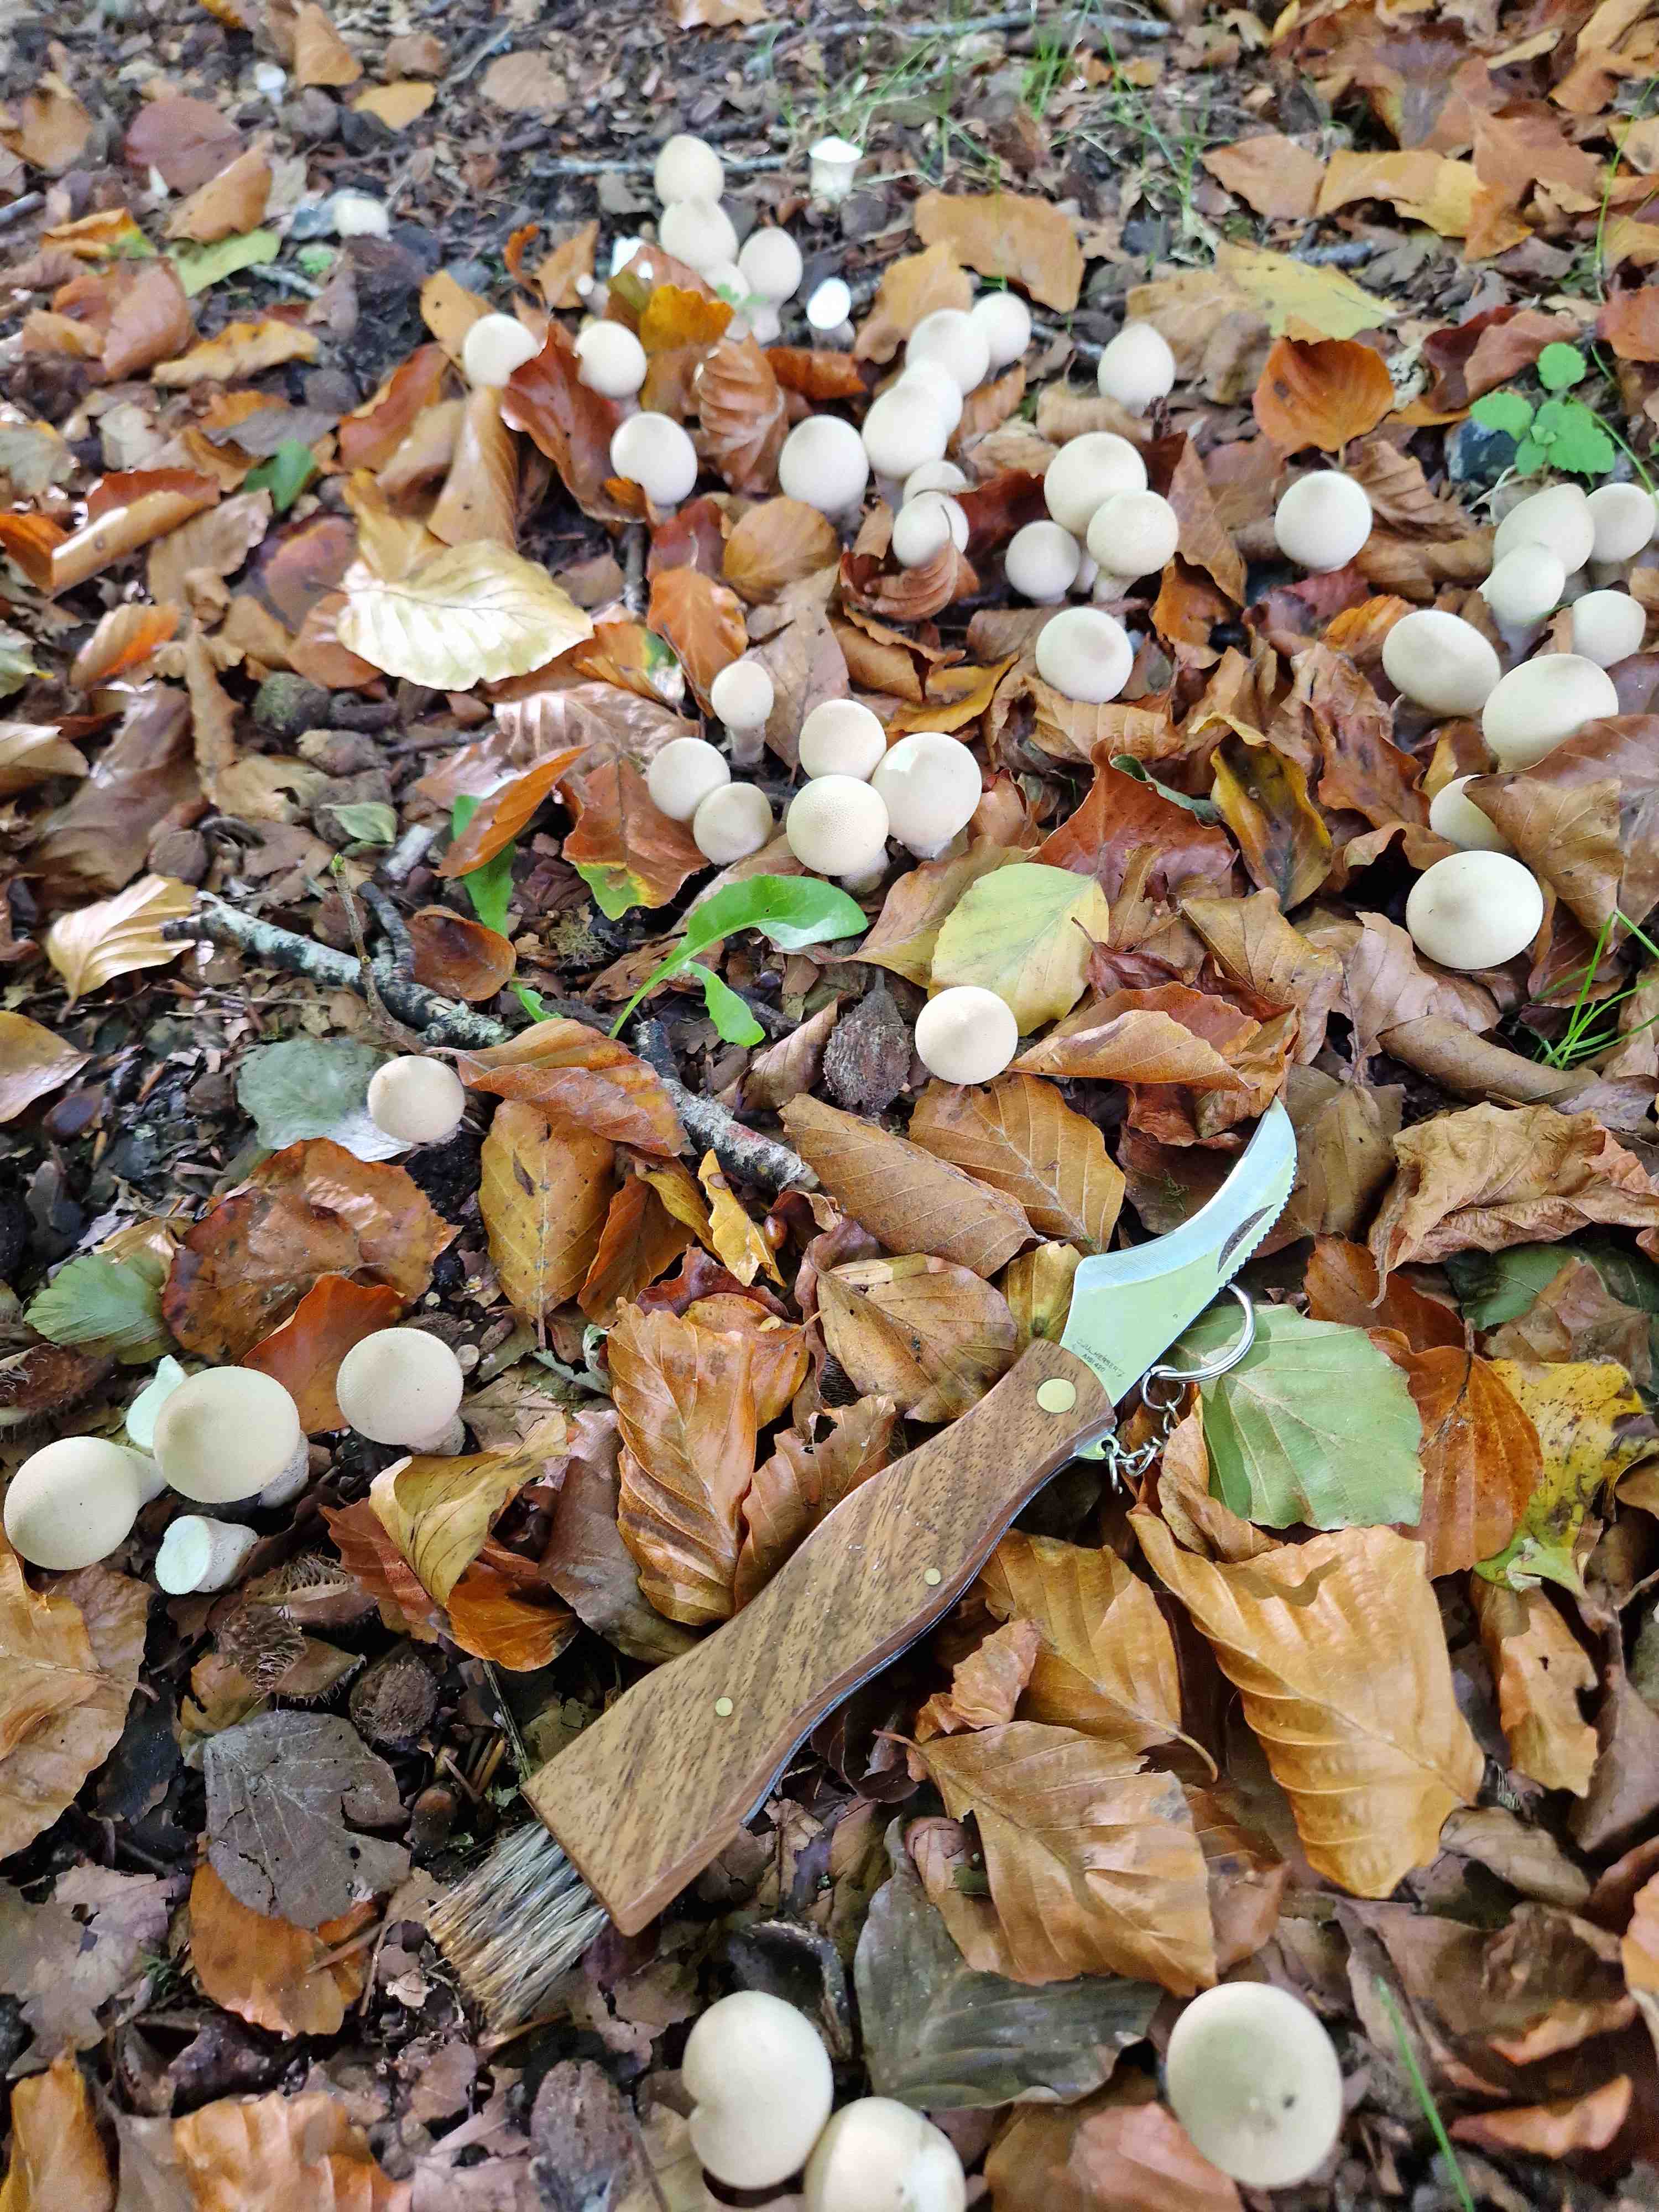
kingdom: Fungi
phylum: Basidiomycota
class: Agaricomycetes
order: Agaricales
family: Lycoperdaceae
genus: Apioperdon
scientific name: Apioperdon pyriforme
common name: pære-støvbold
